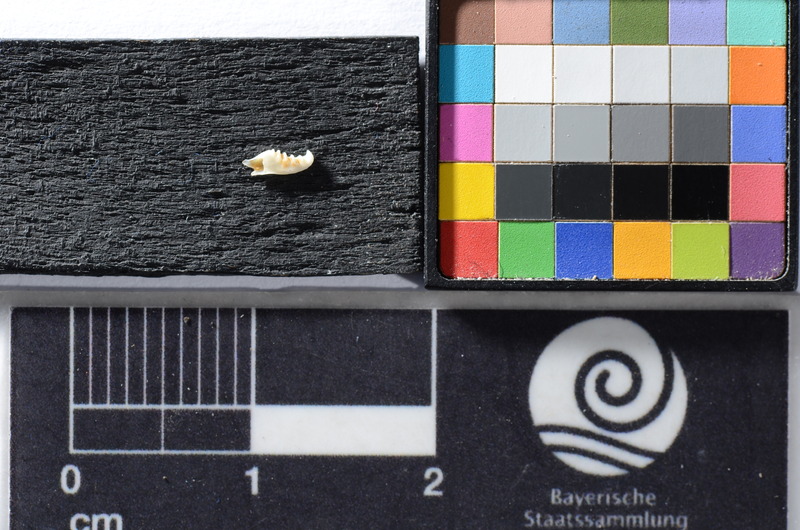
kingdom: Animalia
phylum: Chordata
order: Cypriniformes
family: Cyprinidae
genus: Scardinius
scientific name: Scardinius erythrophthalmus
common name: Rudd
